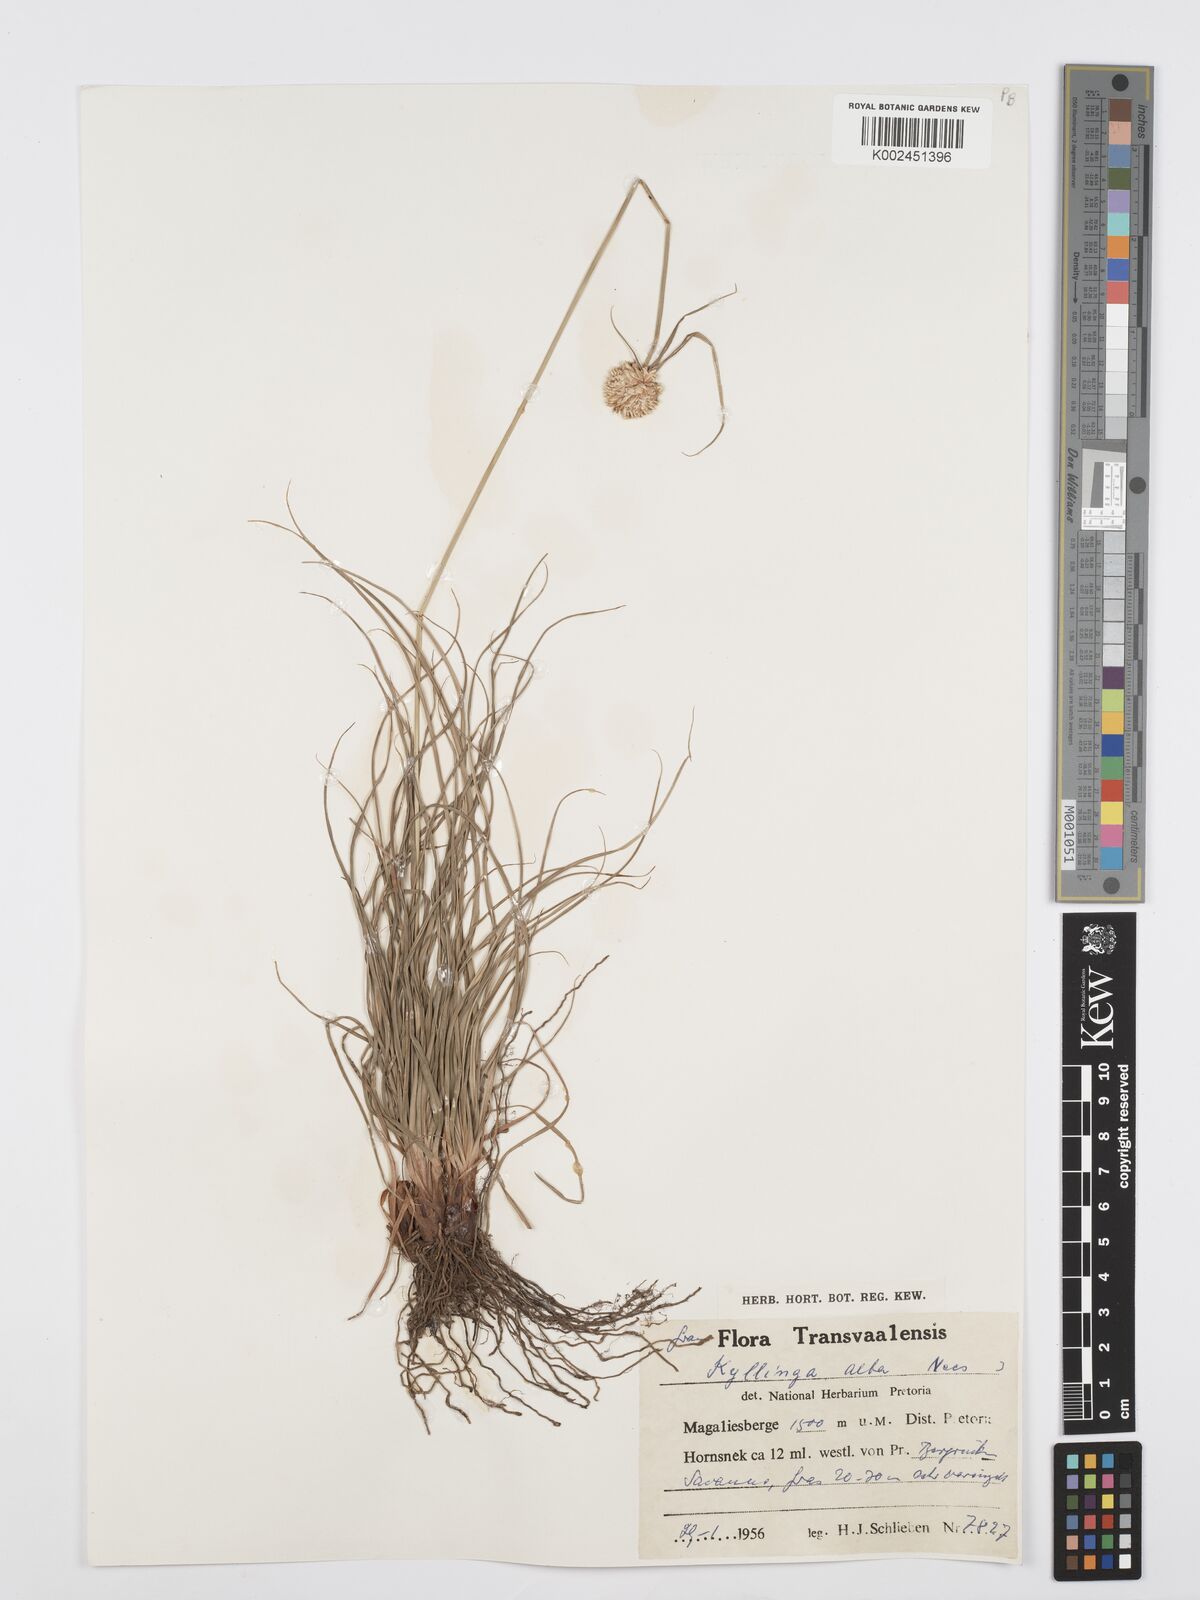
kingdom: Plantae
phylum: Tracheophyta
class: Liliopsida
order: Poales
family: Cyperaceae
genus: Cyperus
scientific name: Cyperus alatus
